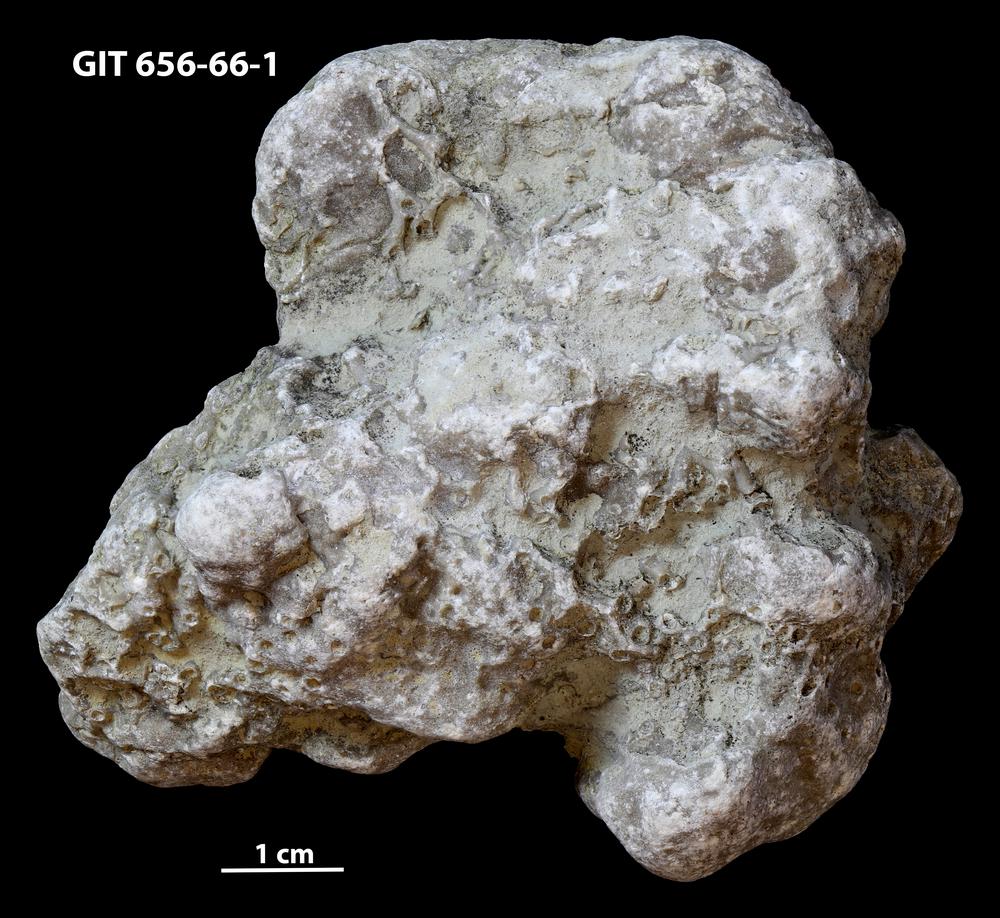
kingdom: Animalia
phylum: Porifera
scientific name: Porifera
